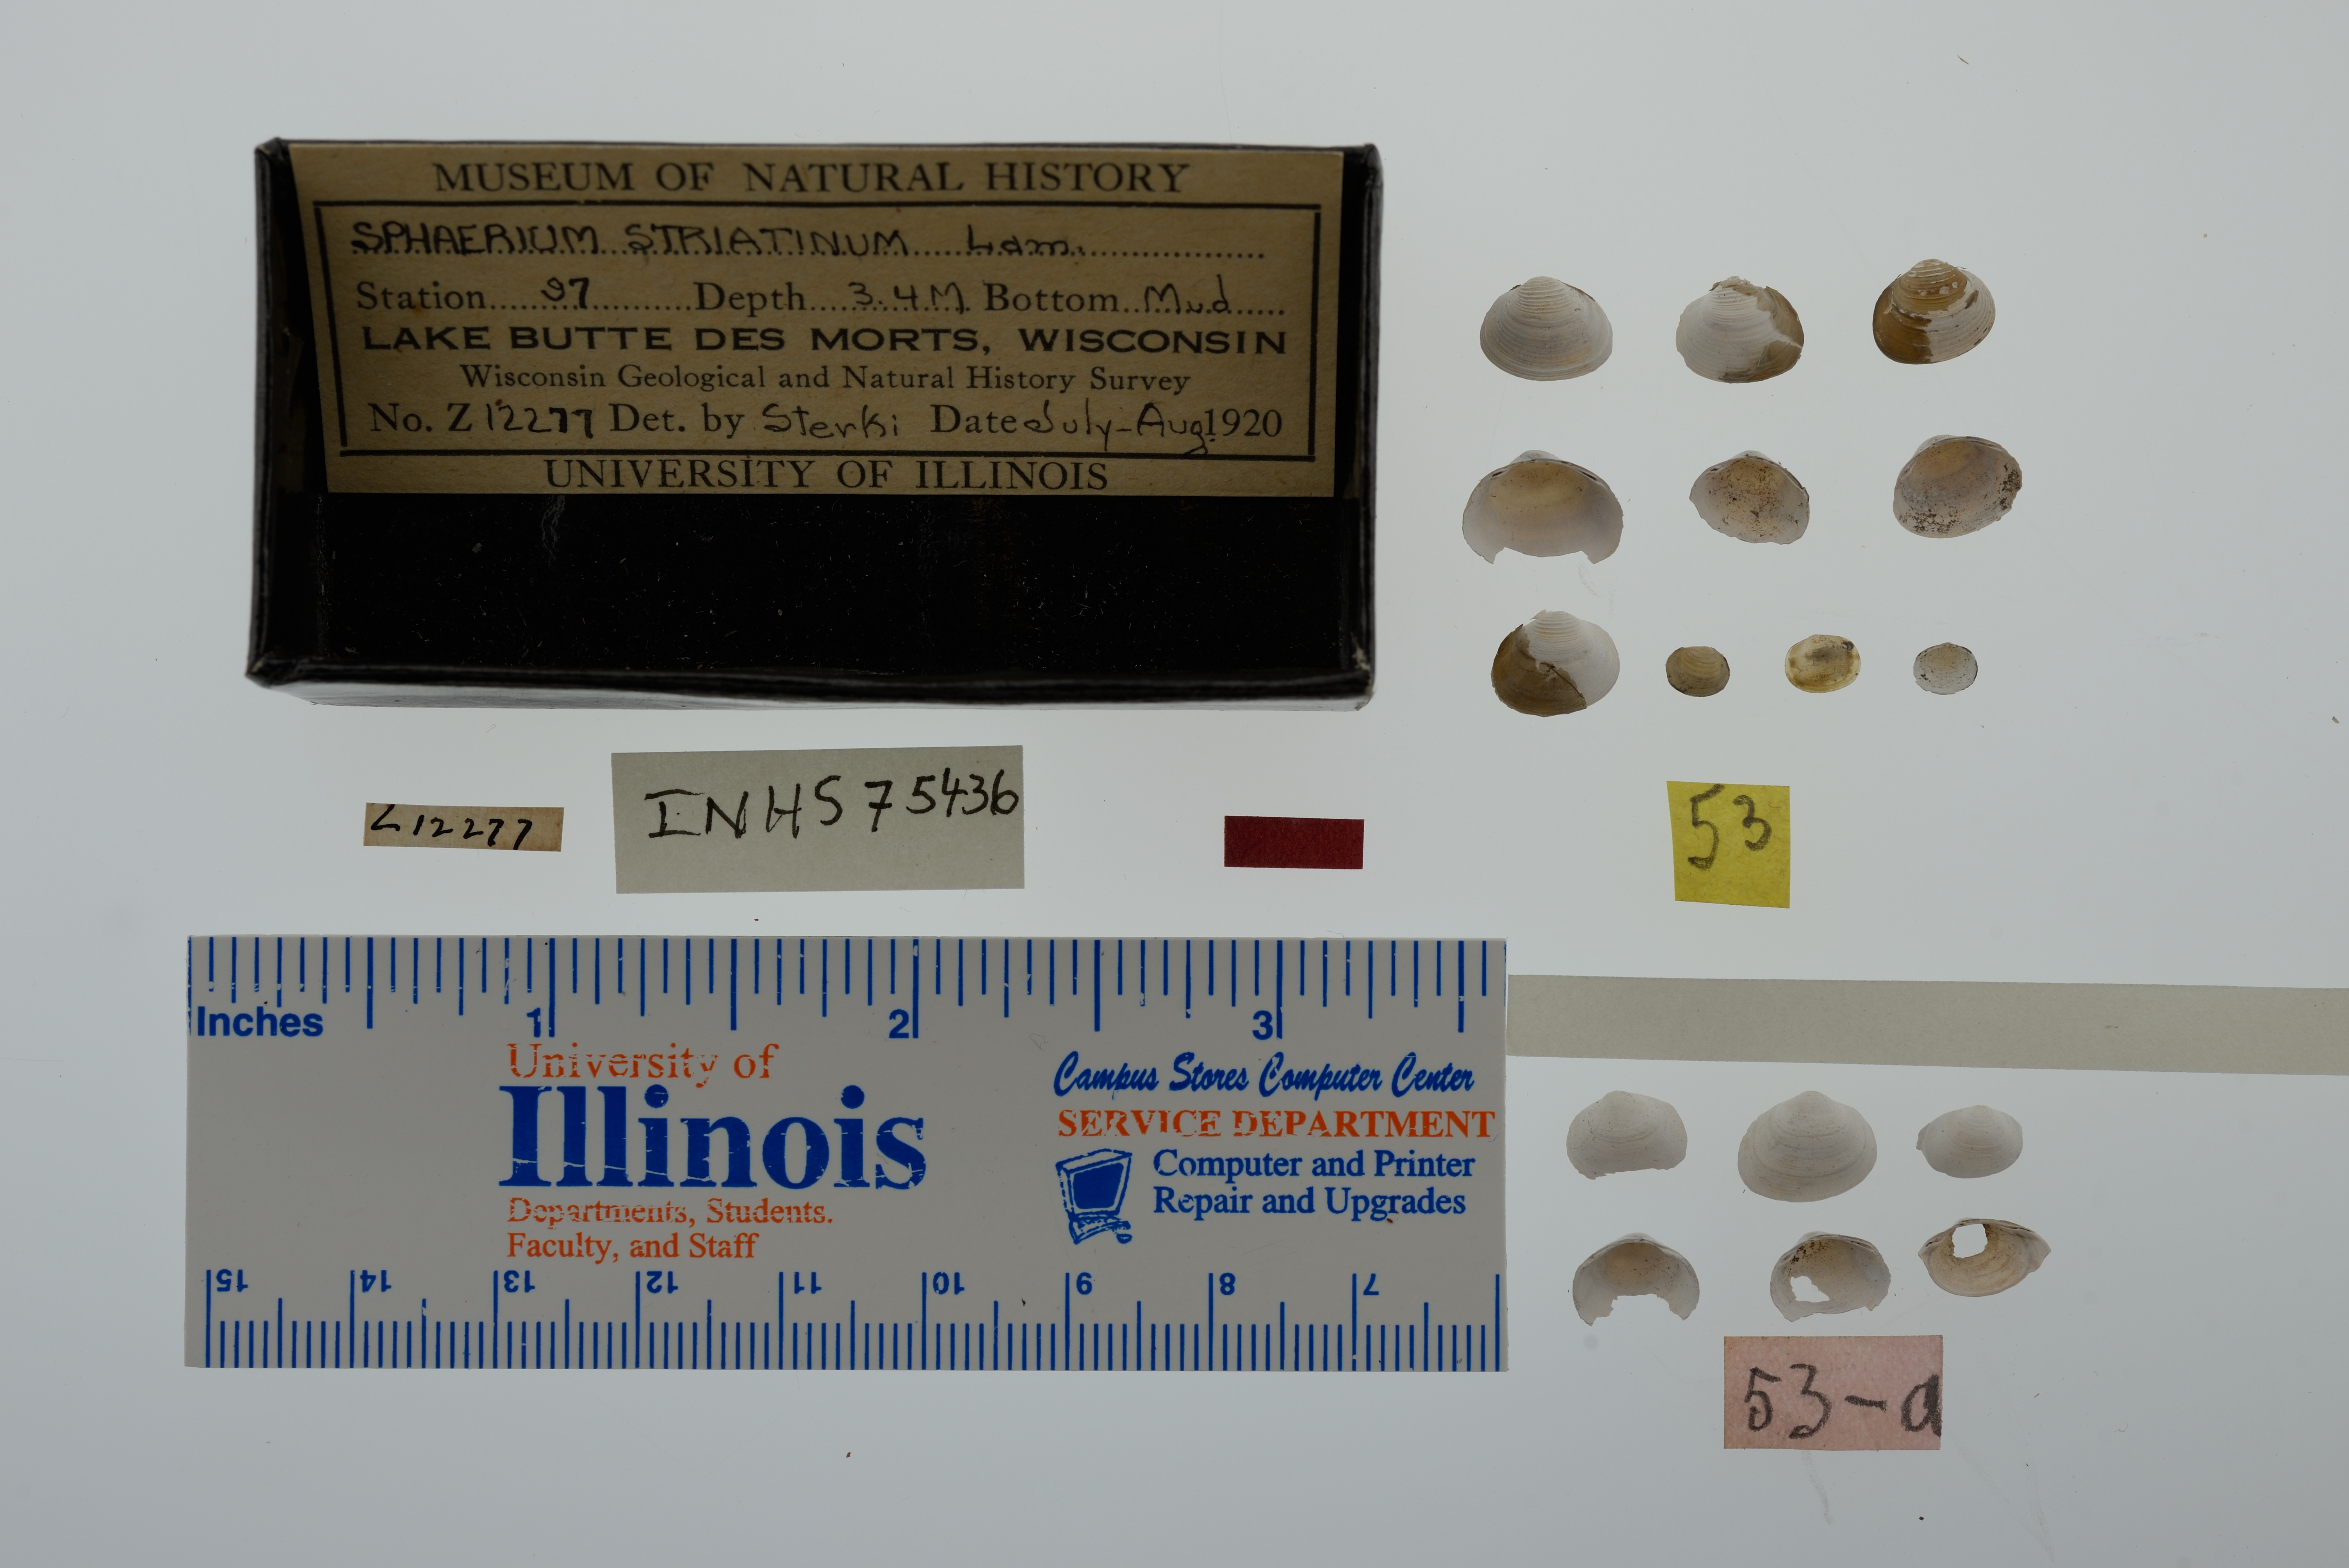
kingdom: Animalia
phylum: Mollusca
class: Bivalvia
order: Sphaeriida
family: Sphaeriidae
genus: Sphaerium
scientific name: Sphaerium striatinum
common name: Striated fingernailclam
